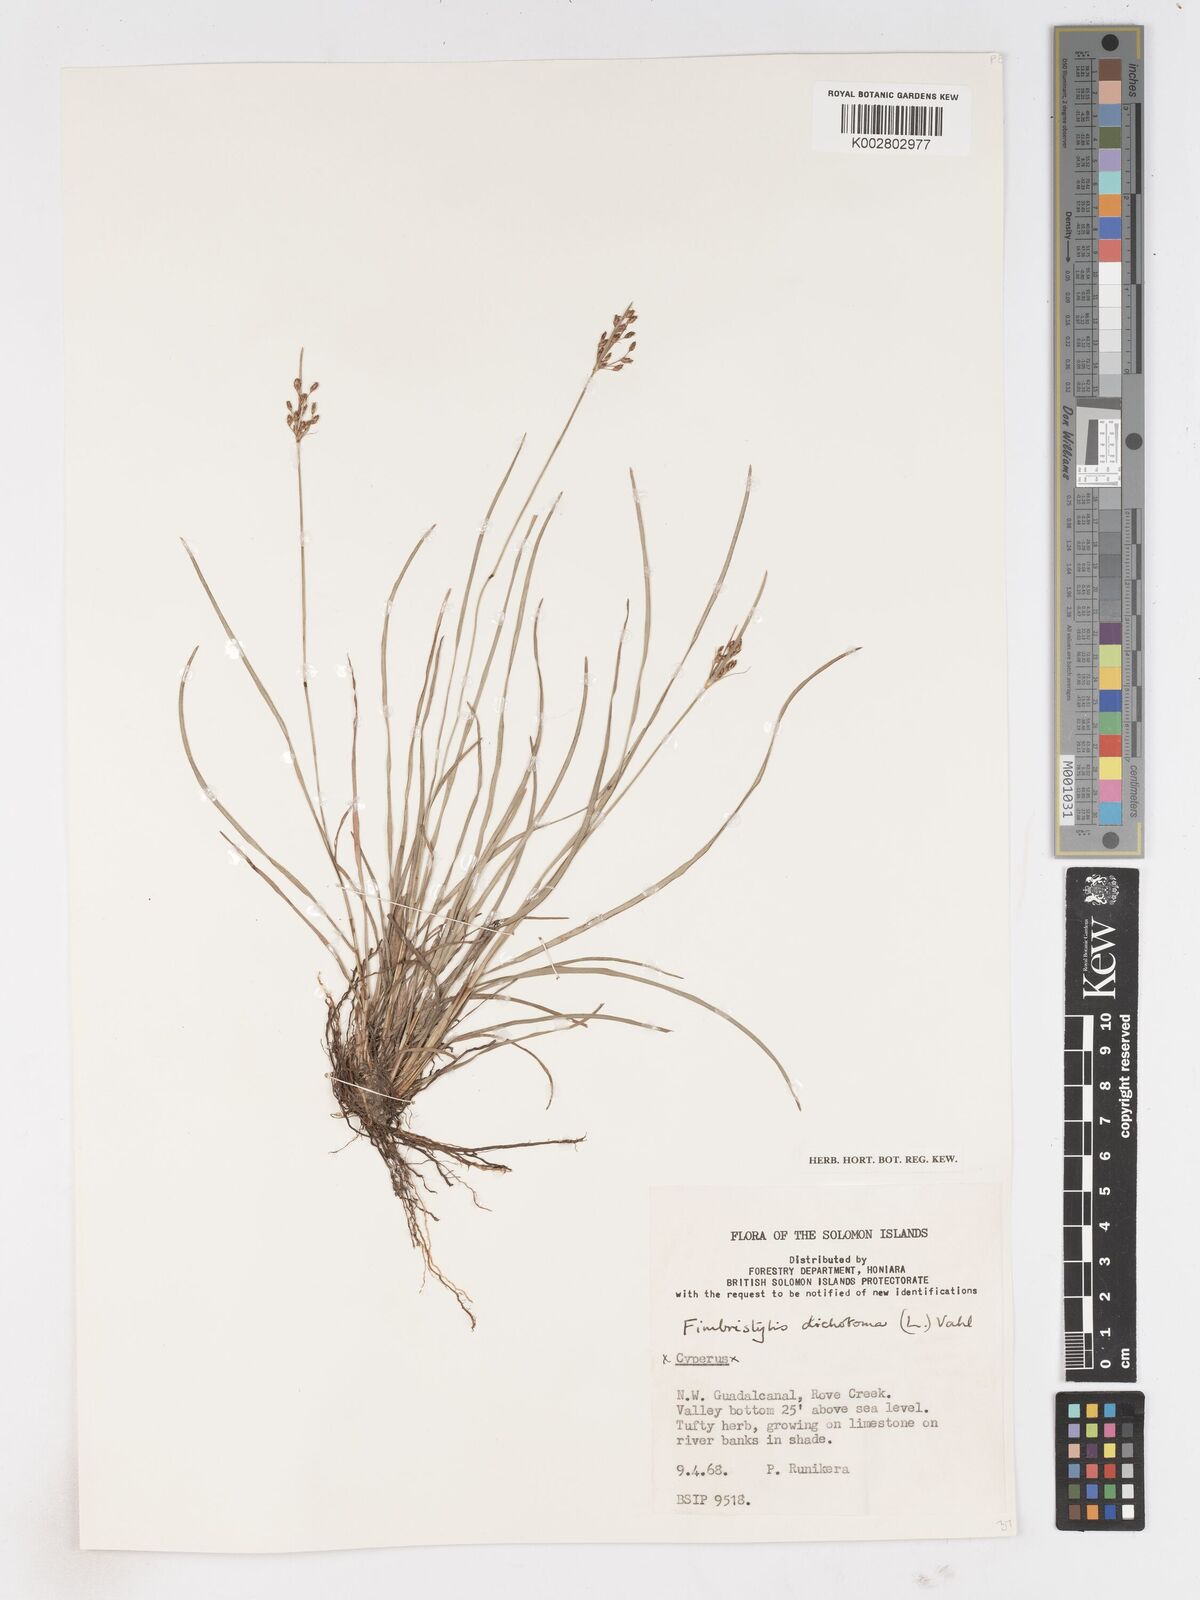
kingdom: Plantae
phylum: Tracheophyta
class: Liliopsida
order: Poales
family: Cyperaceae
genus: Fimbristylis
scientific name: Fimbristylis dichotoma
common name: Forked fimbry
